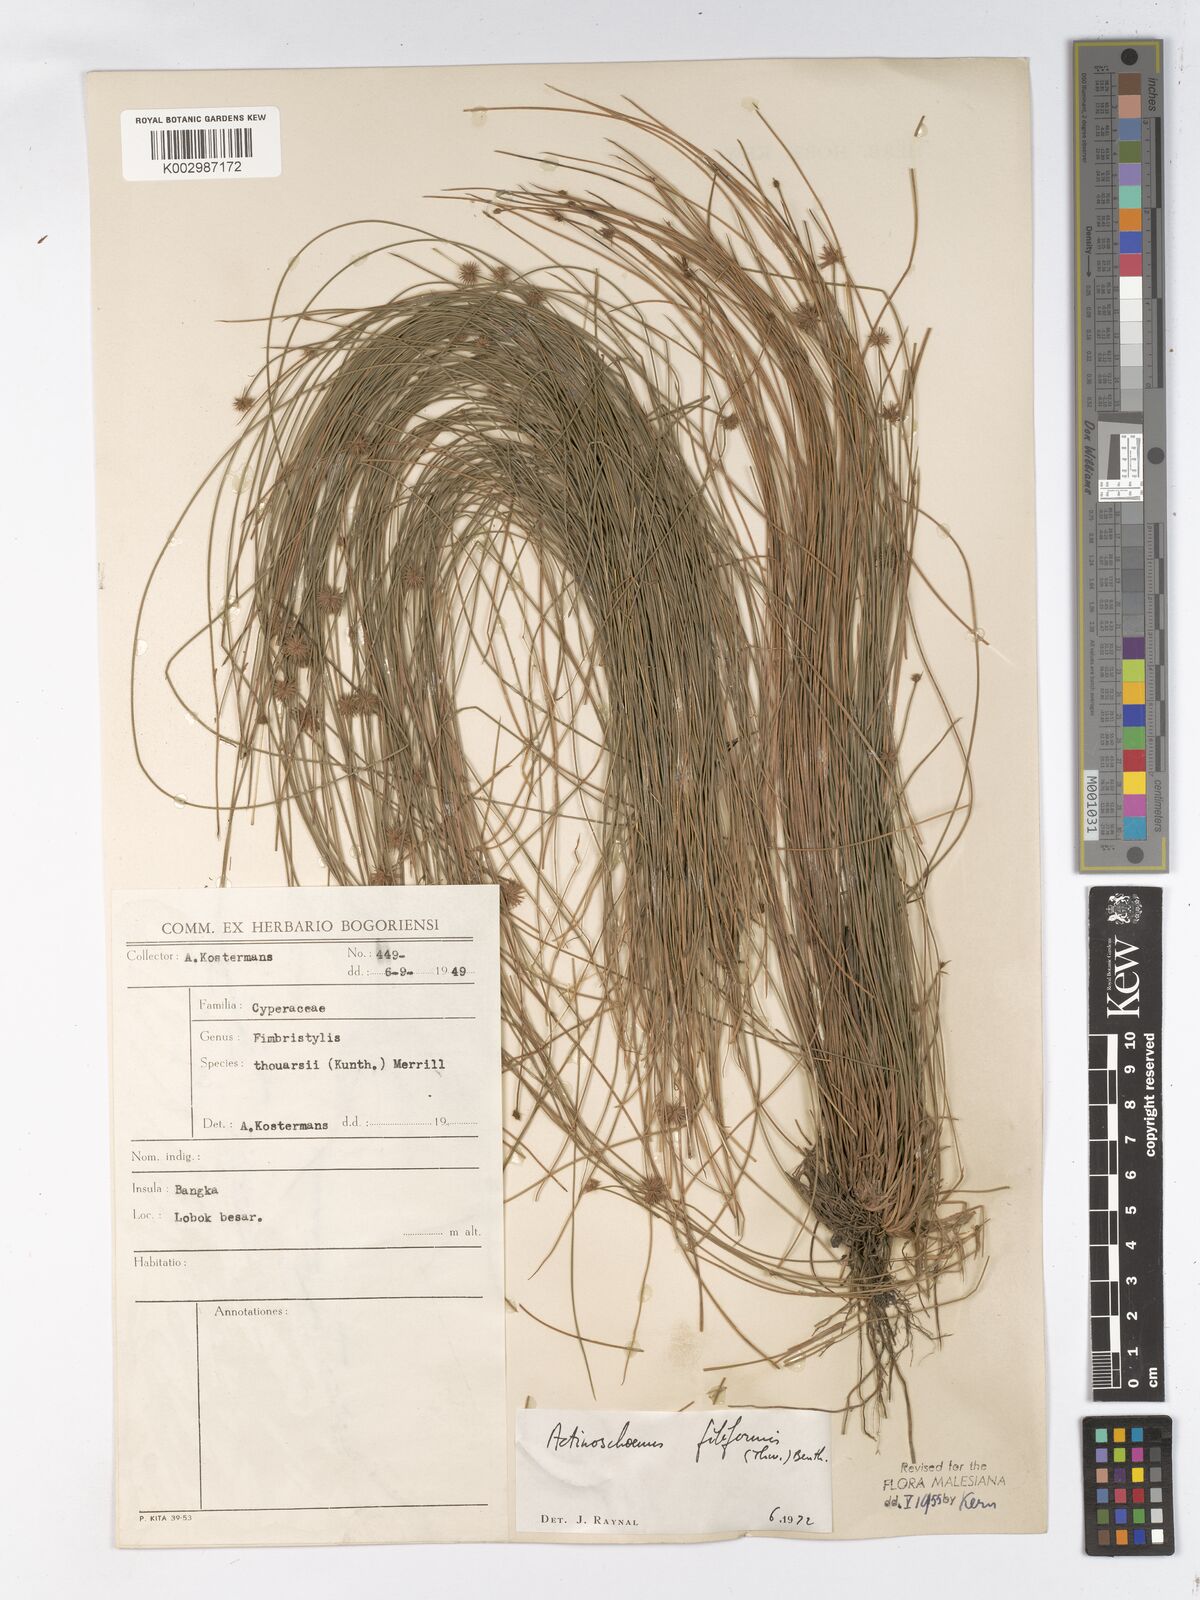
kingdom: Plantae
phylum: Tracheophyta
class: Liliopsida
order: Poales
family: Cyperaceae
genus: Actinoschoenus
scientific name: Actinoschoenus aphyllus
